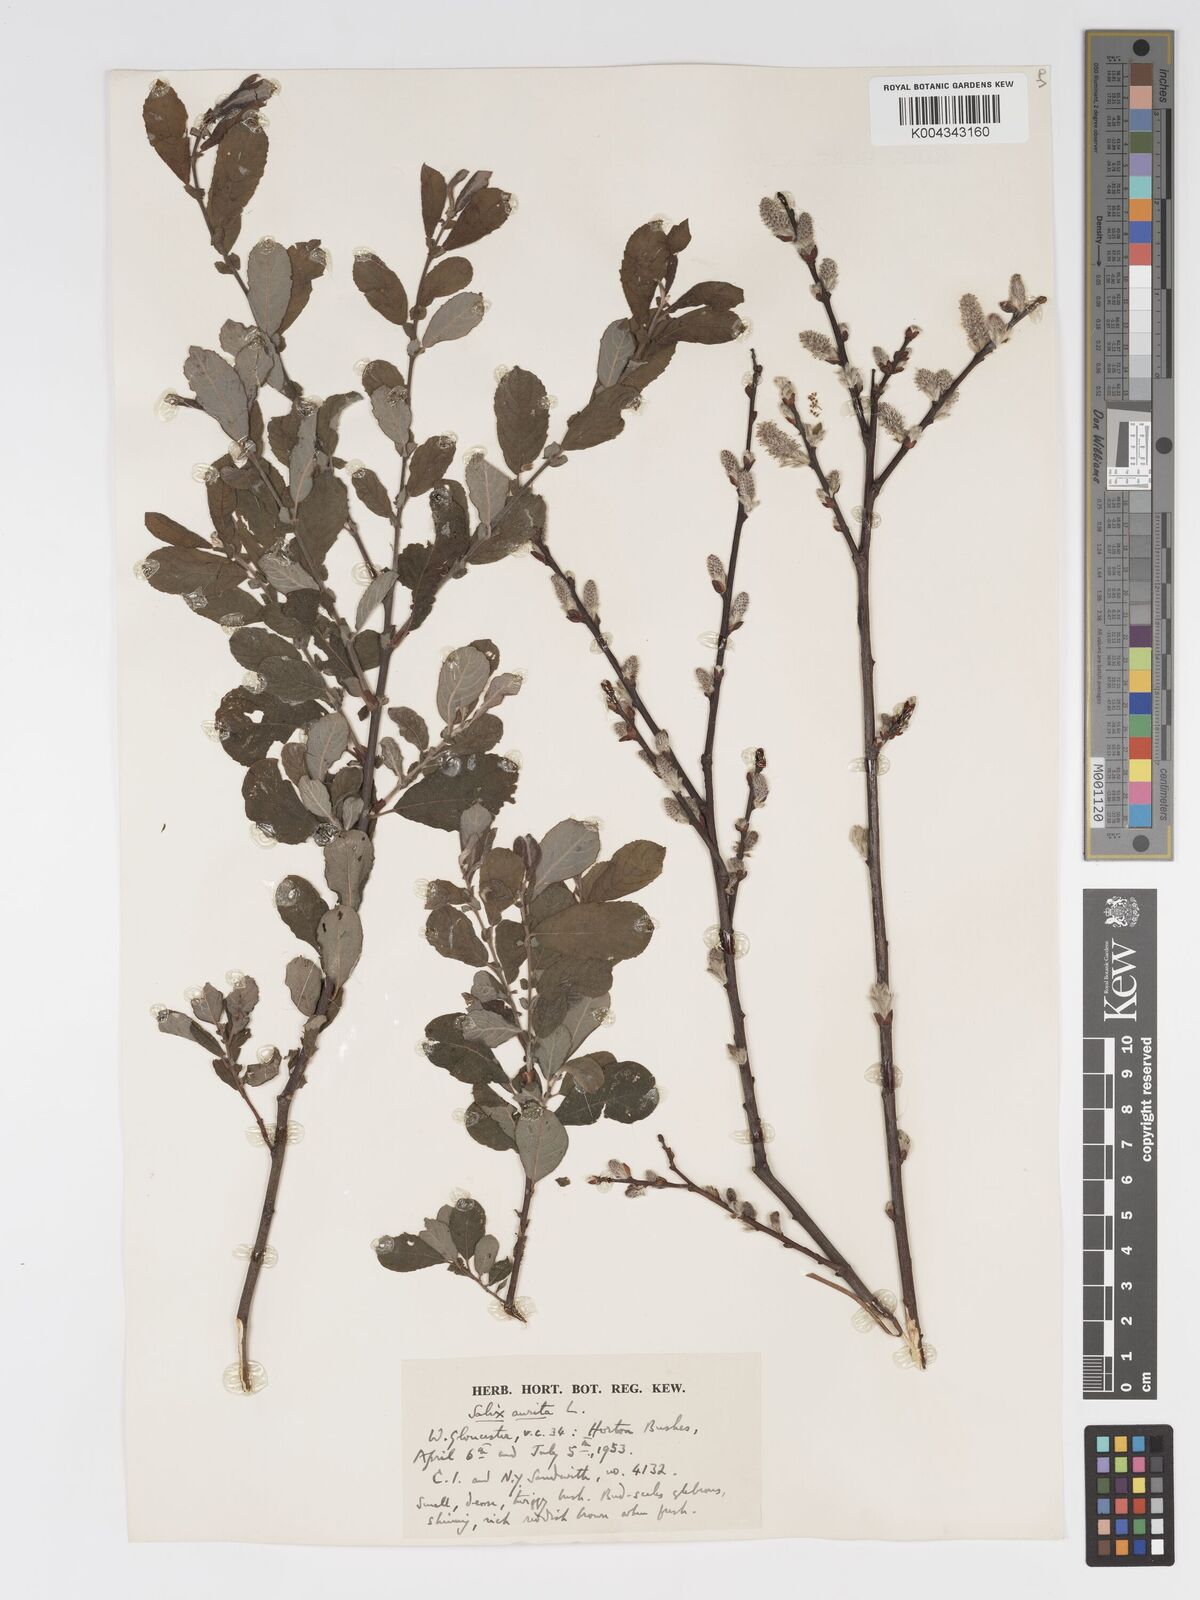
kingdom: Plantae
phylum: Tracheophyta
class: Magnoliopsida
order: Malpighiales
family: Salicaceae
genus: Salix
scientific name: Salix aurita
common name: Eared willow
